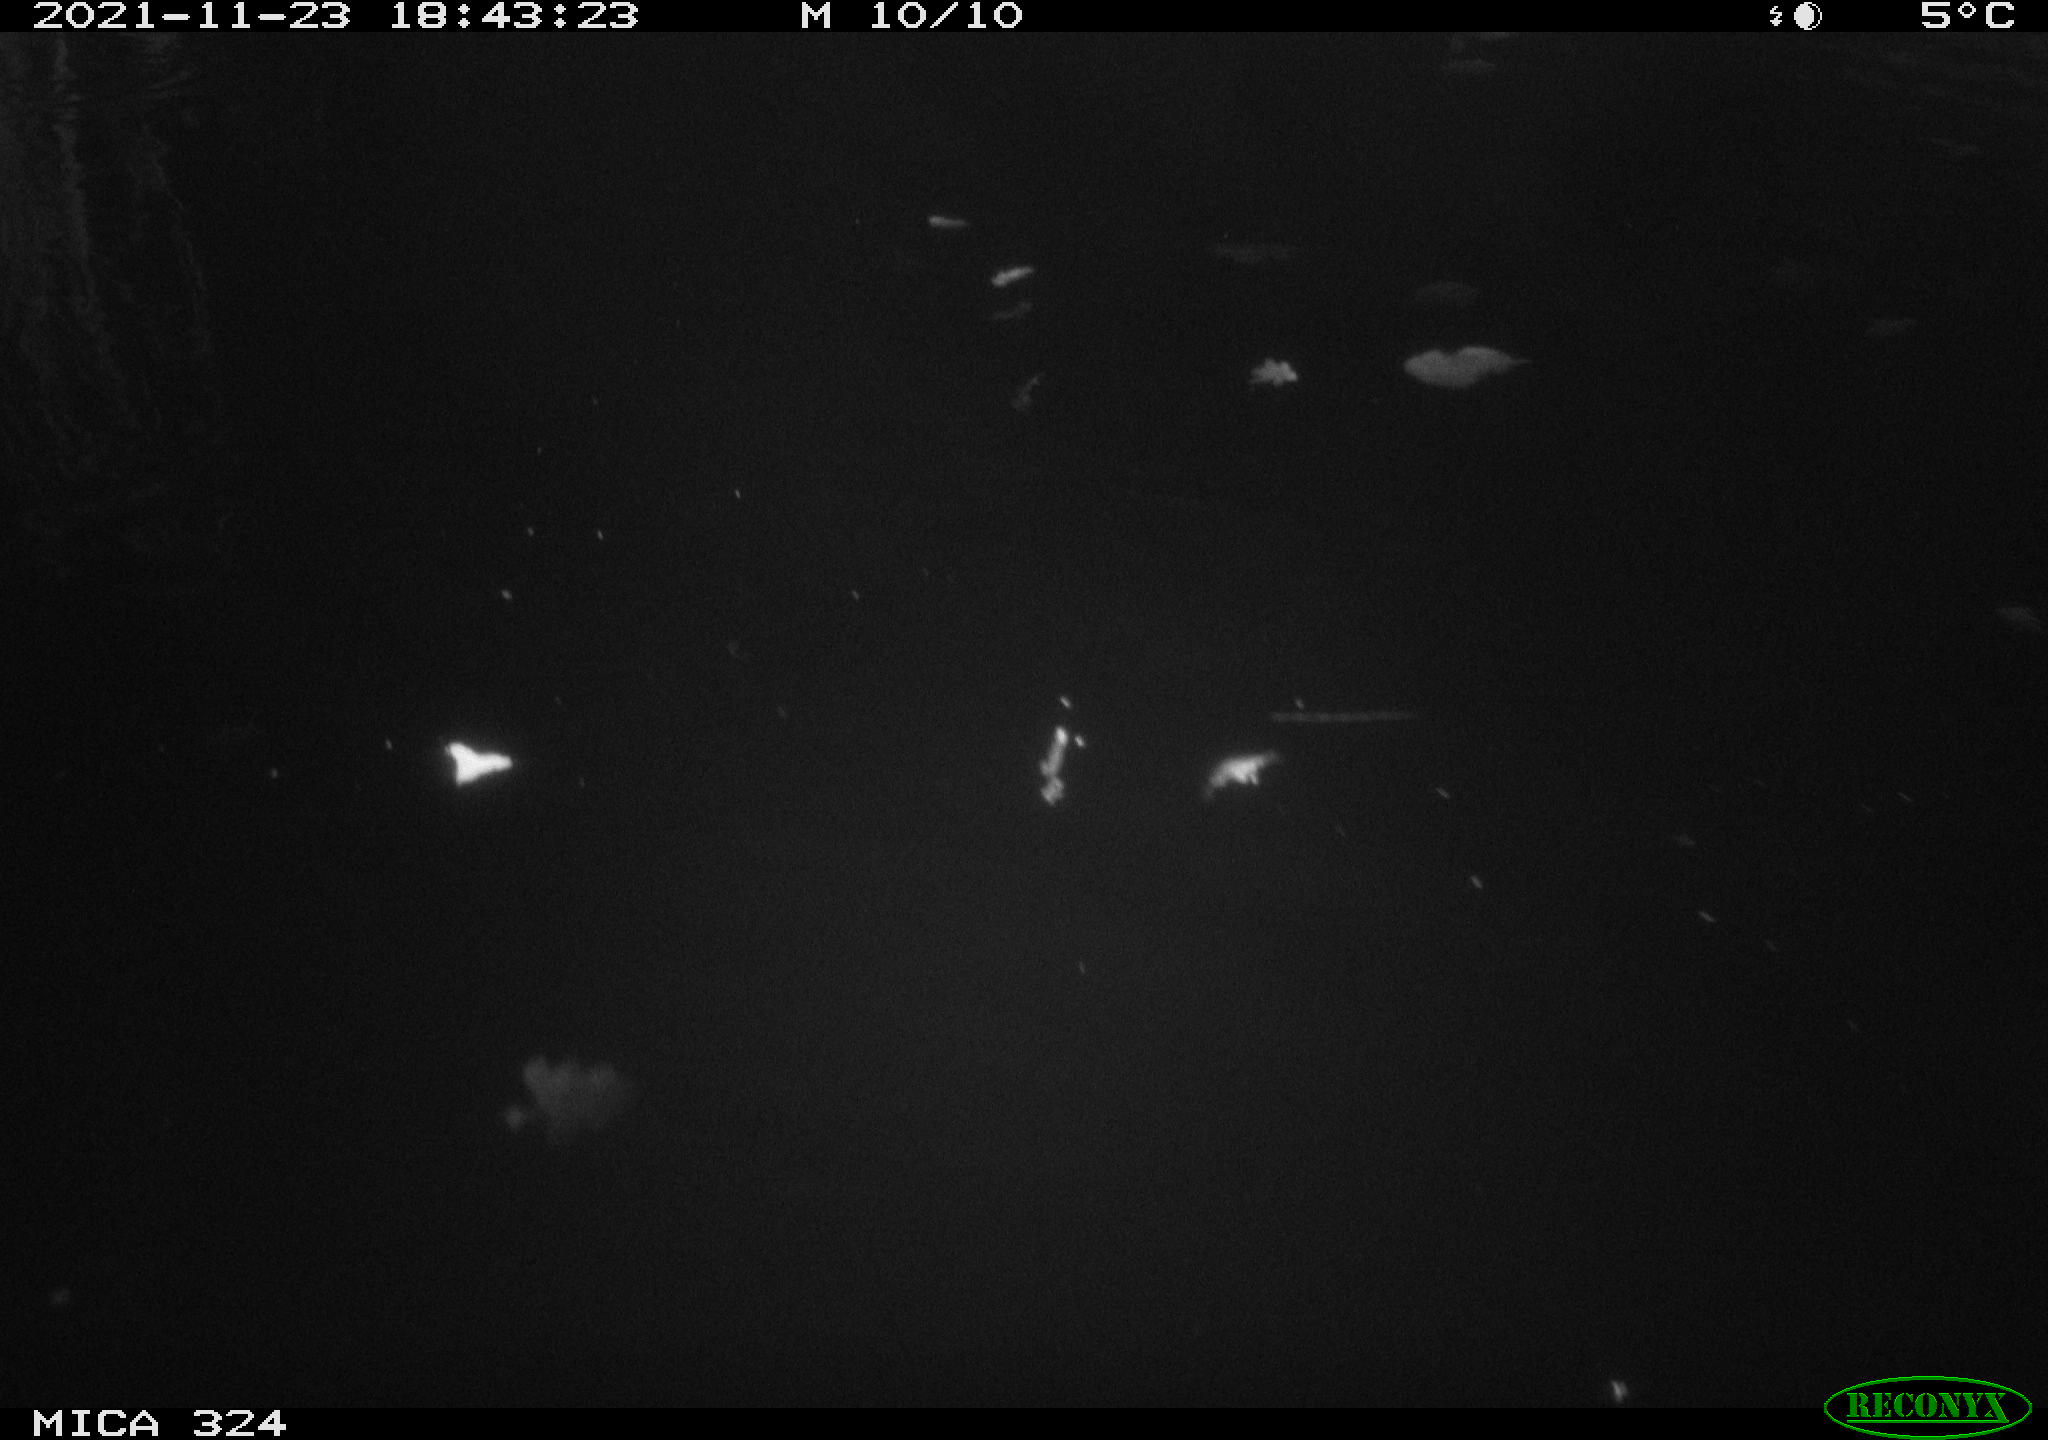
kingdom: Animalia
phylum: Chordata
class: Mammalia
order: Rodentia
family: Cricetidae
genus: Ondatra
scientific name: Ondatra zibethicus
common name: Muskrat
